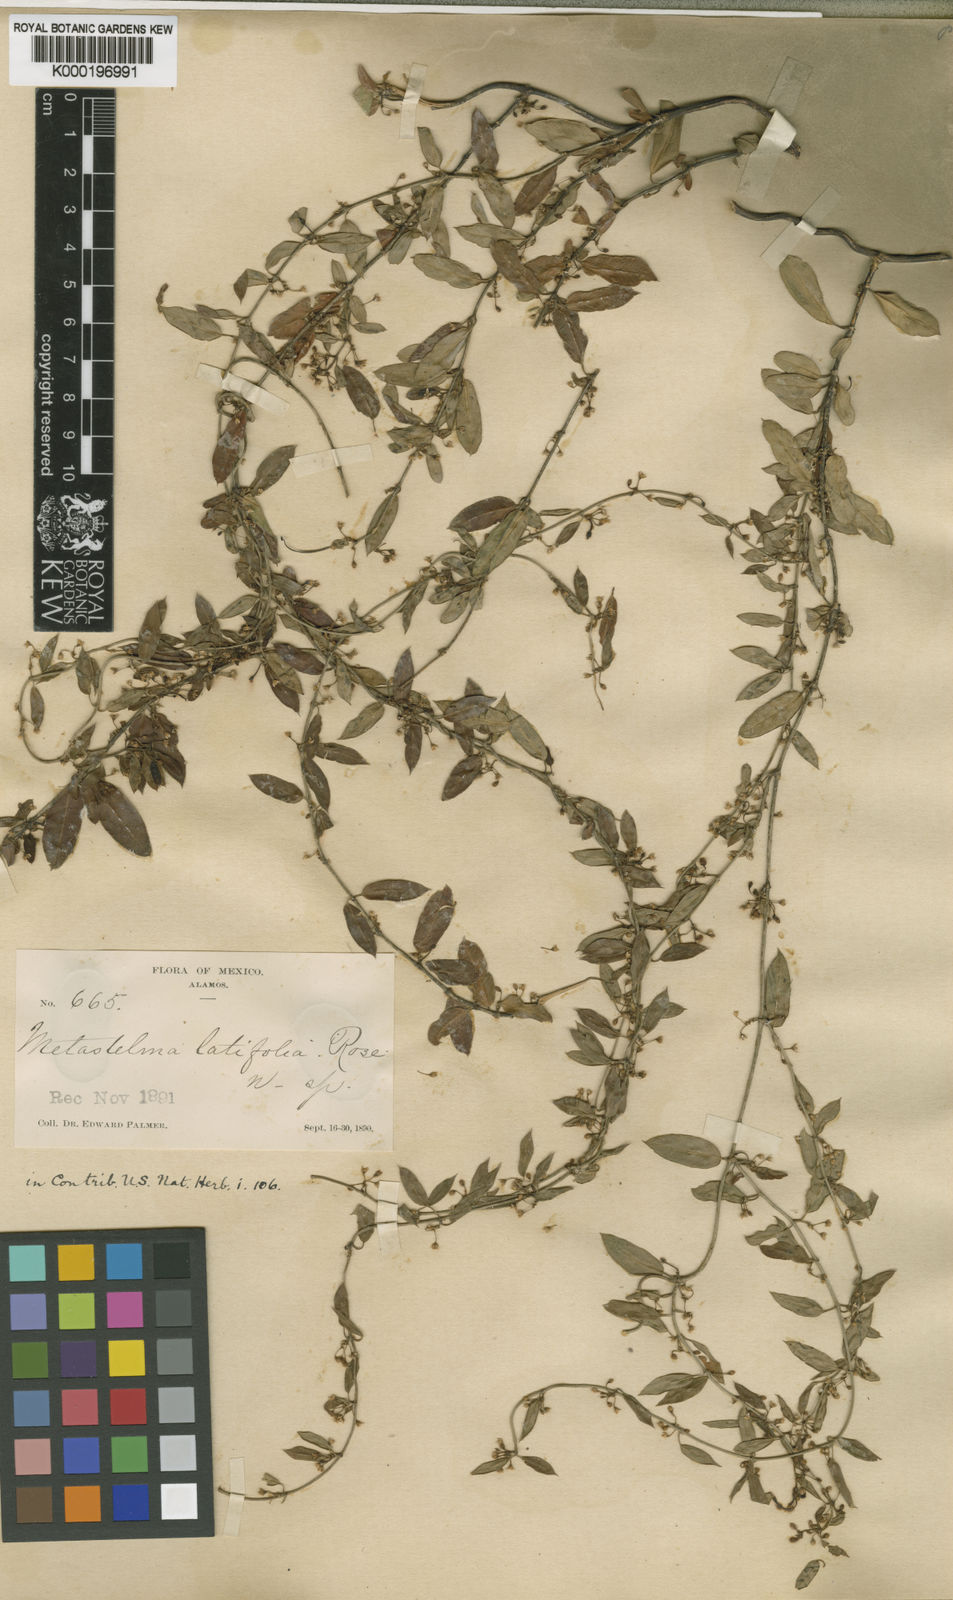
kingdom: Plantae
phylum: Tracheophyta
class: Magnoliopsida
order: Gentianales
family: Apocynaceae
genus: Metastelma
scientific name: Metastelma latifolium
